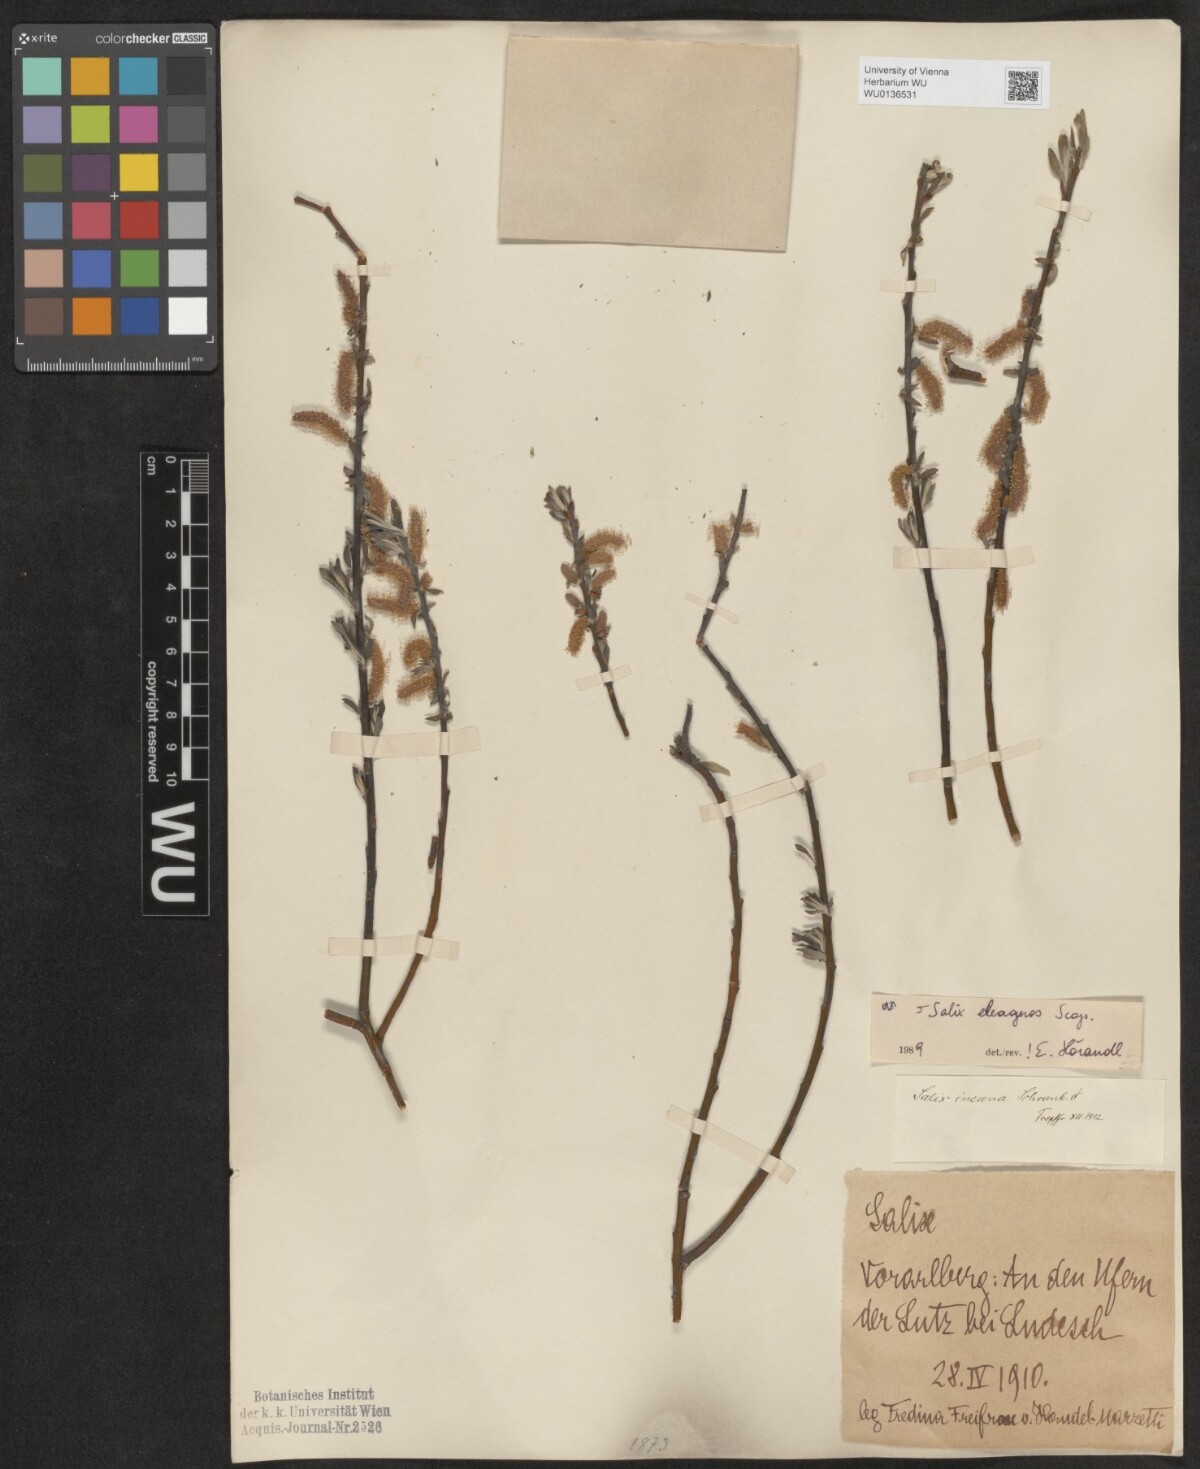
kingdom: Plantae
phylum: Tracheophyta
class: Magnoliopsida
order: Malpighiales
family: Salicaceae
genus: Salix
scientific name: Salix eleagnos
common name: Elaeagnus willow
